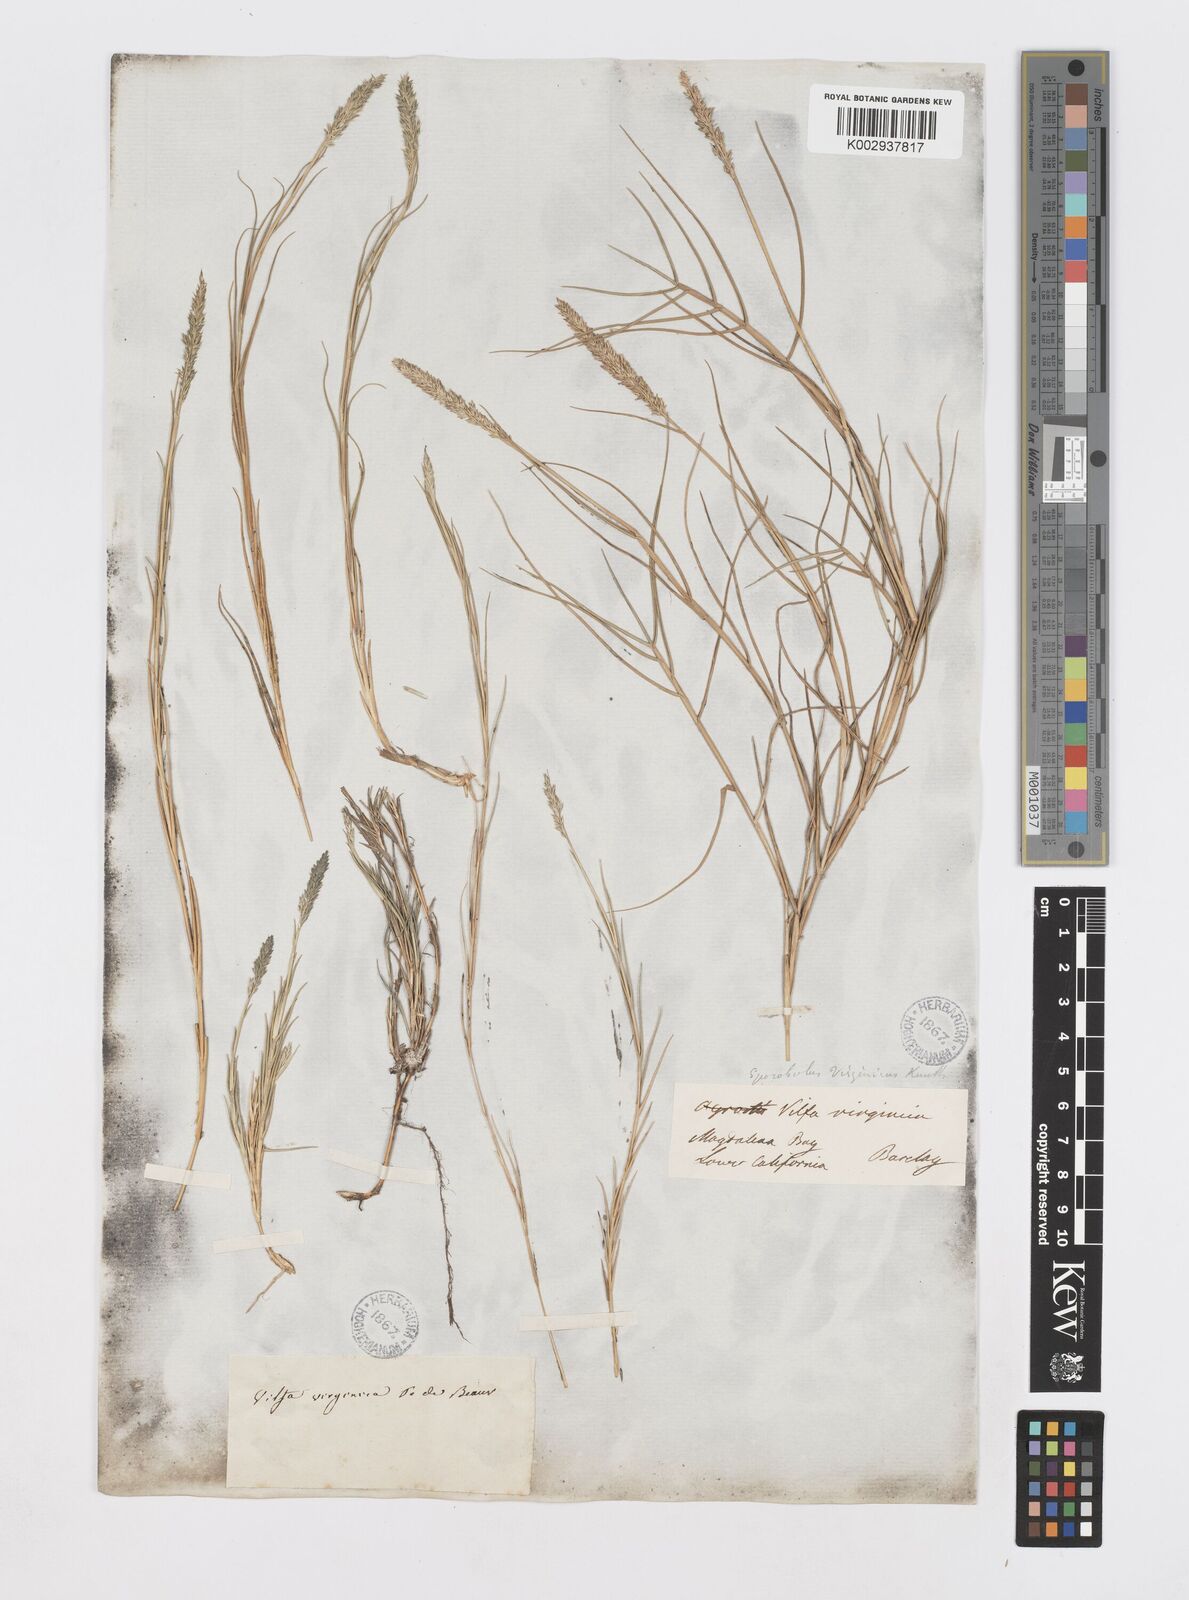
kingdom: Plantae
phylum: Tracheophyta
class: Liliopsida
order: Poales
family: Poaceae
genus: Sporobolus
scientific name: Sporobolus virginicus
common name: Beach dropseed
